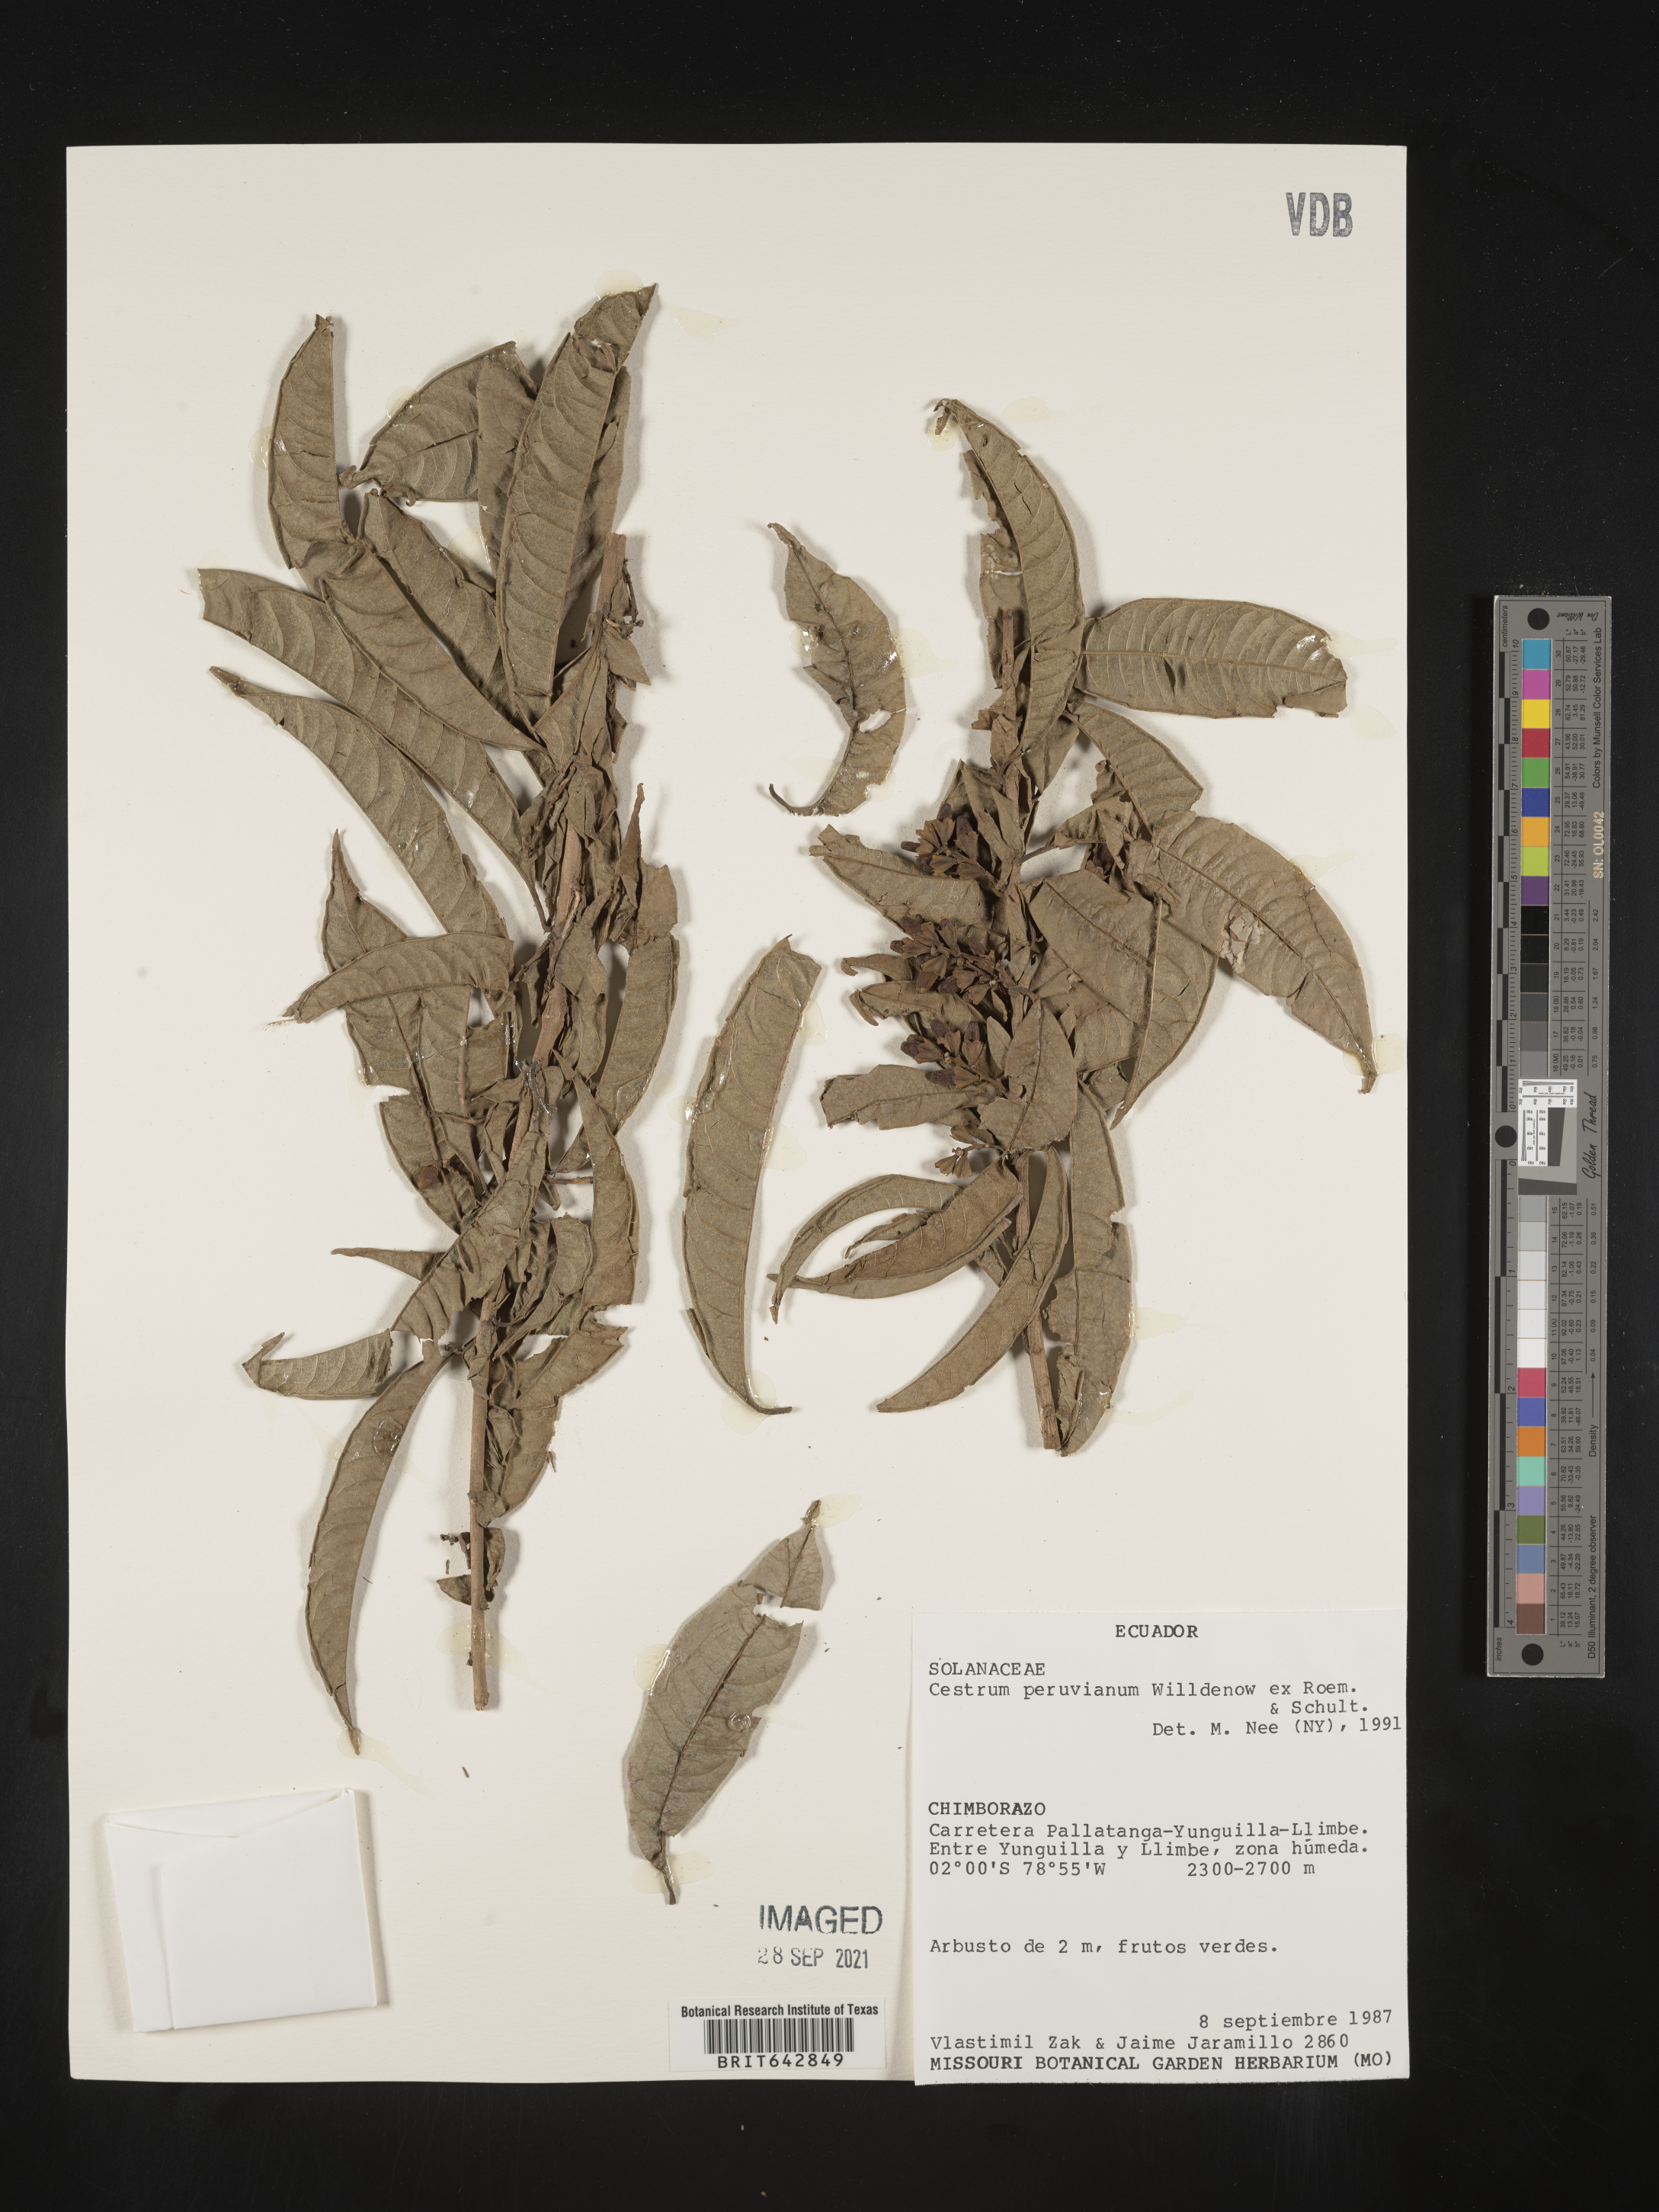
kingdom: Plantae
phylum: Tracheophyta
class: Magnoliopsida
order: Solanales
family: Solanaceae
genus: Cestrum
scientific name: Cestrum
